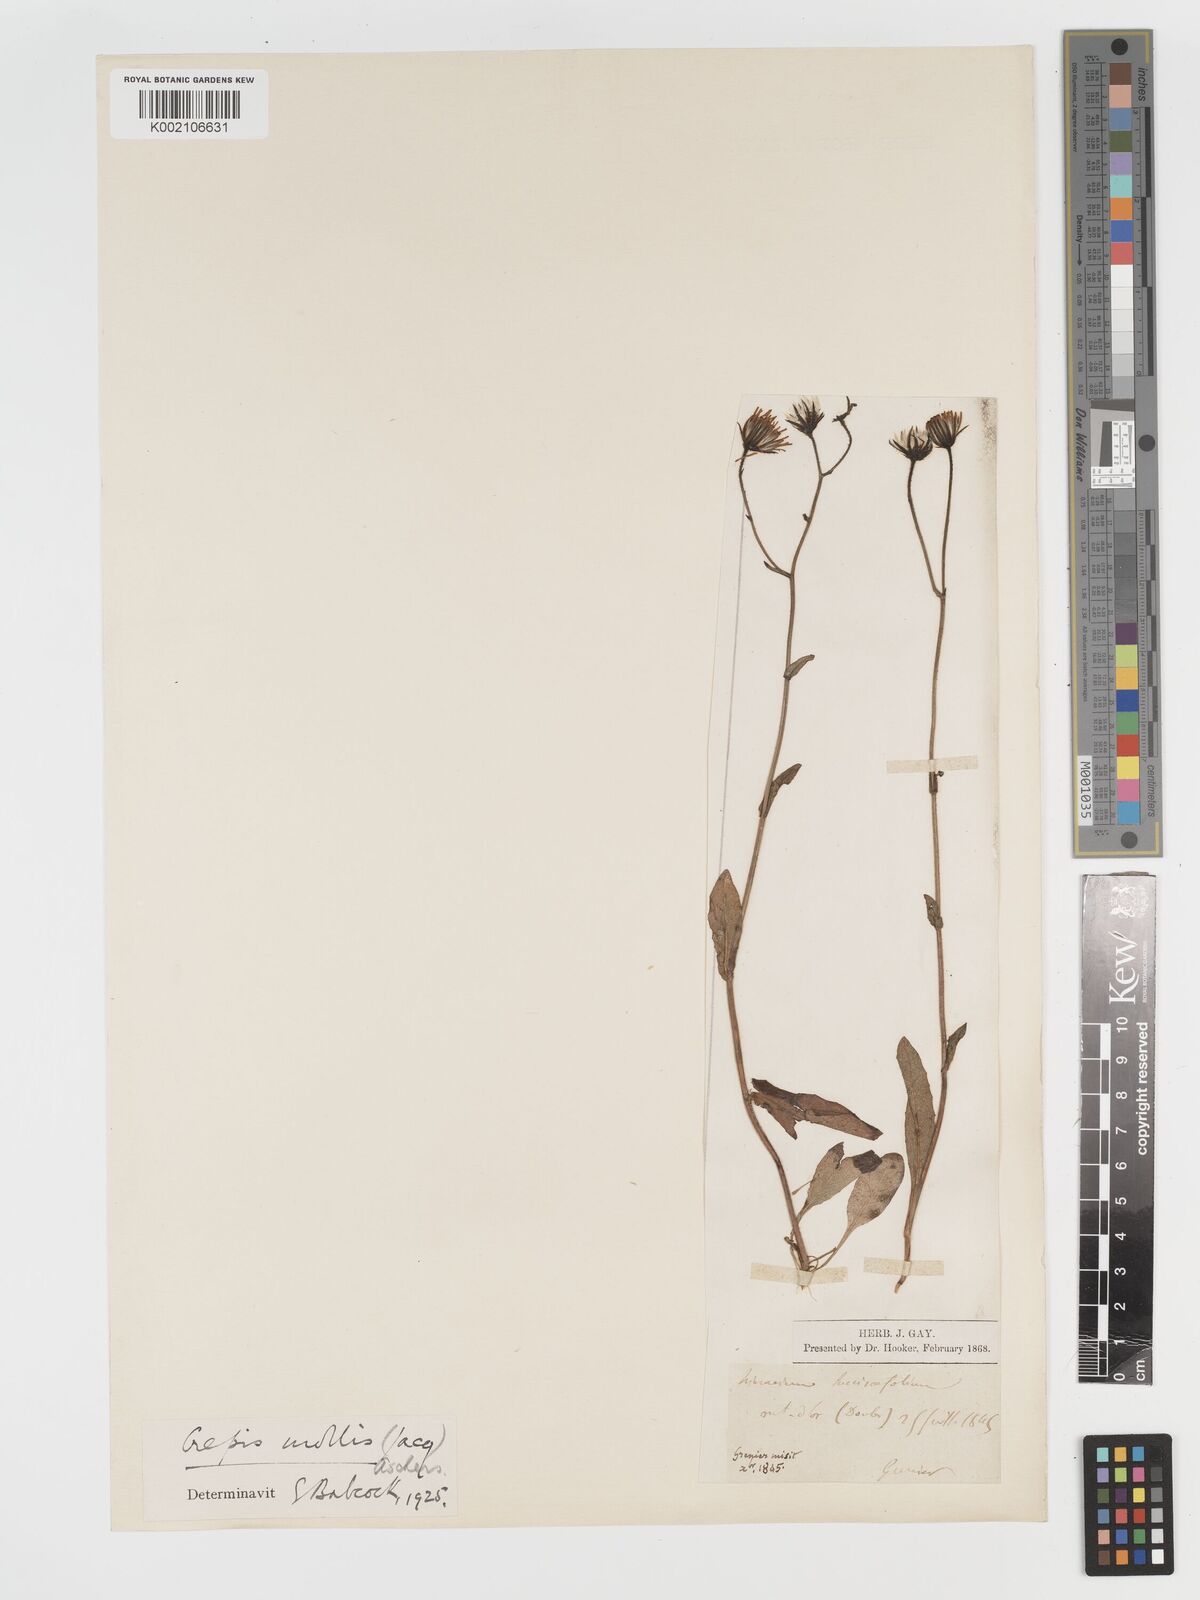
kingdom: Plantae
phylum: Tracheophyta
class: Magnoliopsida
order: Asterales
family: Asteraceae
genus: Crepis
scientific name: Crepis mollis
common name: Northern hawk's-beard
